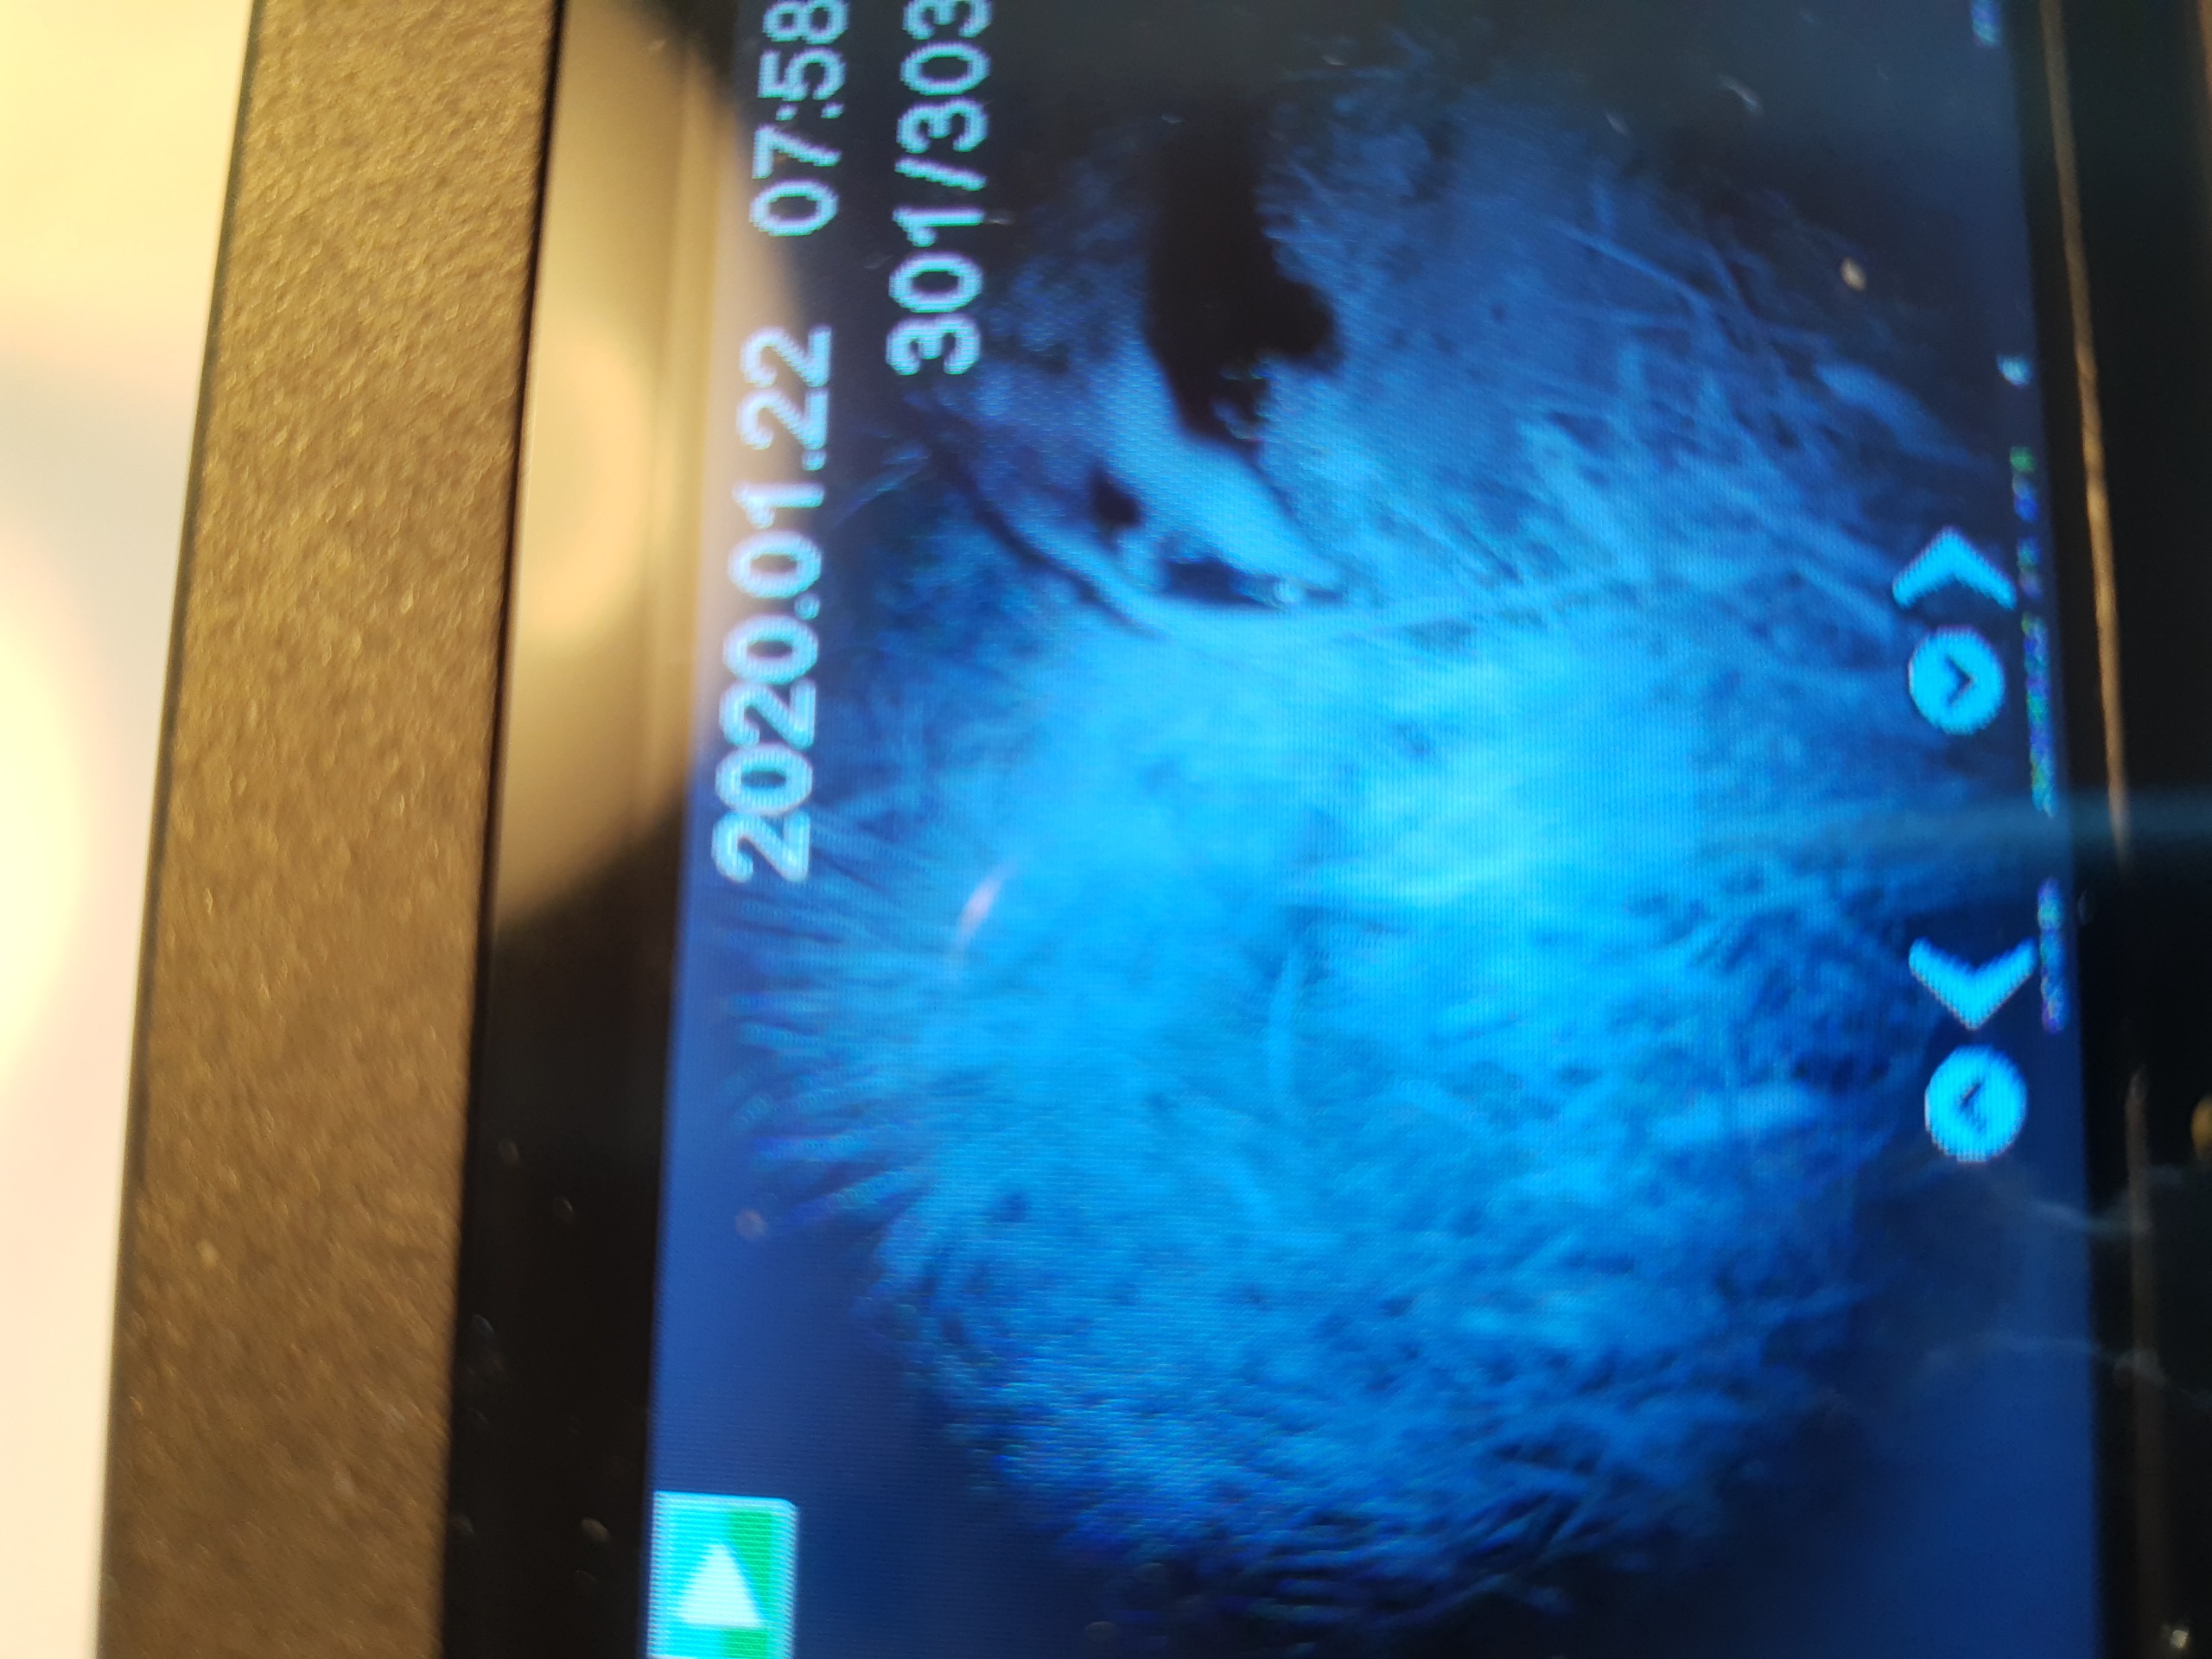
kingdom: Animalia
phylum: Chordata
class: Mammalia
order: Carnivora
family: Mustelidae
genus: Meles
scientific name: Meles meles
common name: Grævling
